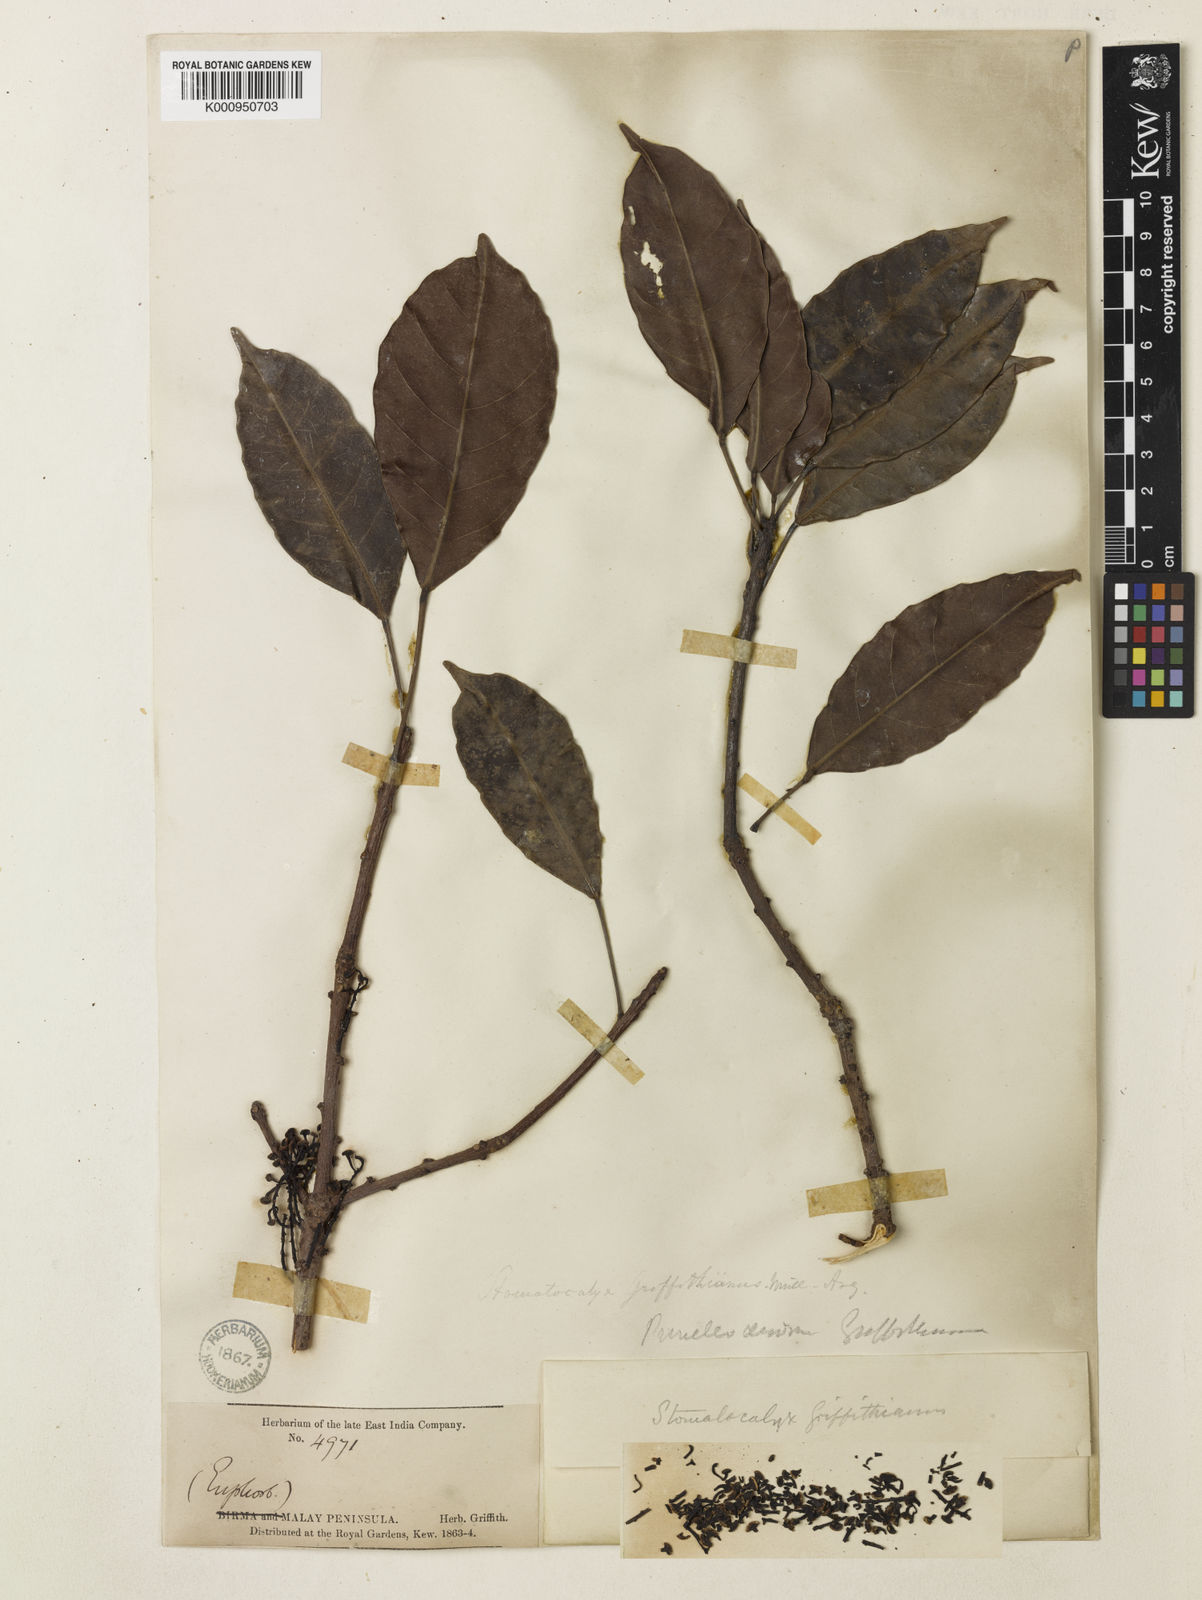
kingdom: Plantae
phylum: Tracheophyta
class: Magnoliopsida
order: Malpighiales
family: Euphorbiaceae
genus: Pimelodendron
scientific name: Pimelodendron
